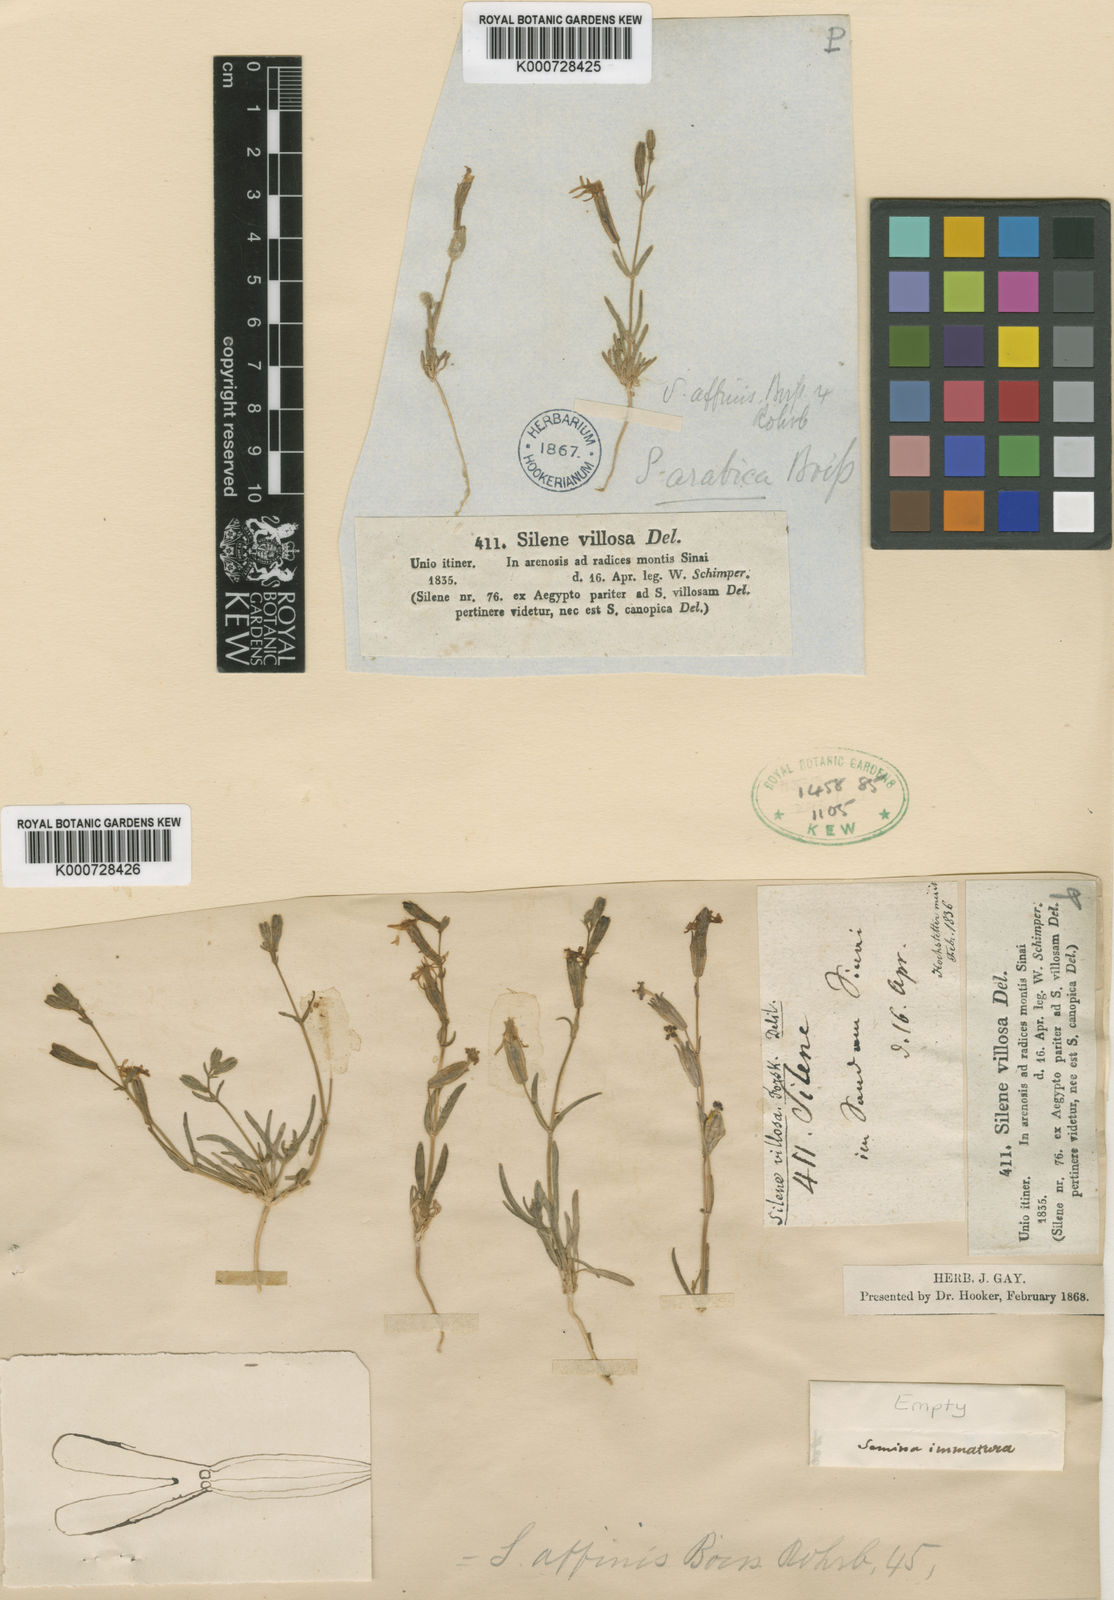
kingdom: Plantae
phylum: Tracheophyta
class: Magnoliopsida
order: Caryophyllales
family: Caryophyllaceae
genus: Silene
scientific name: Silene arabica
